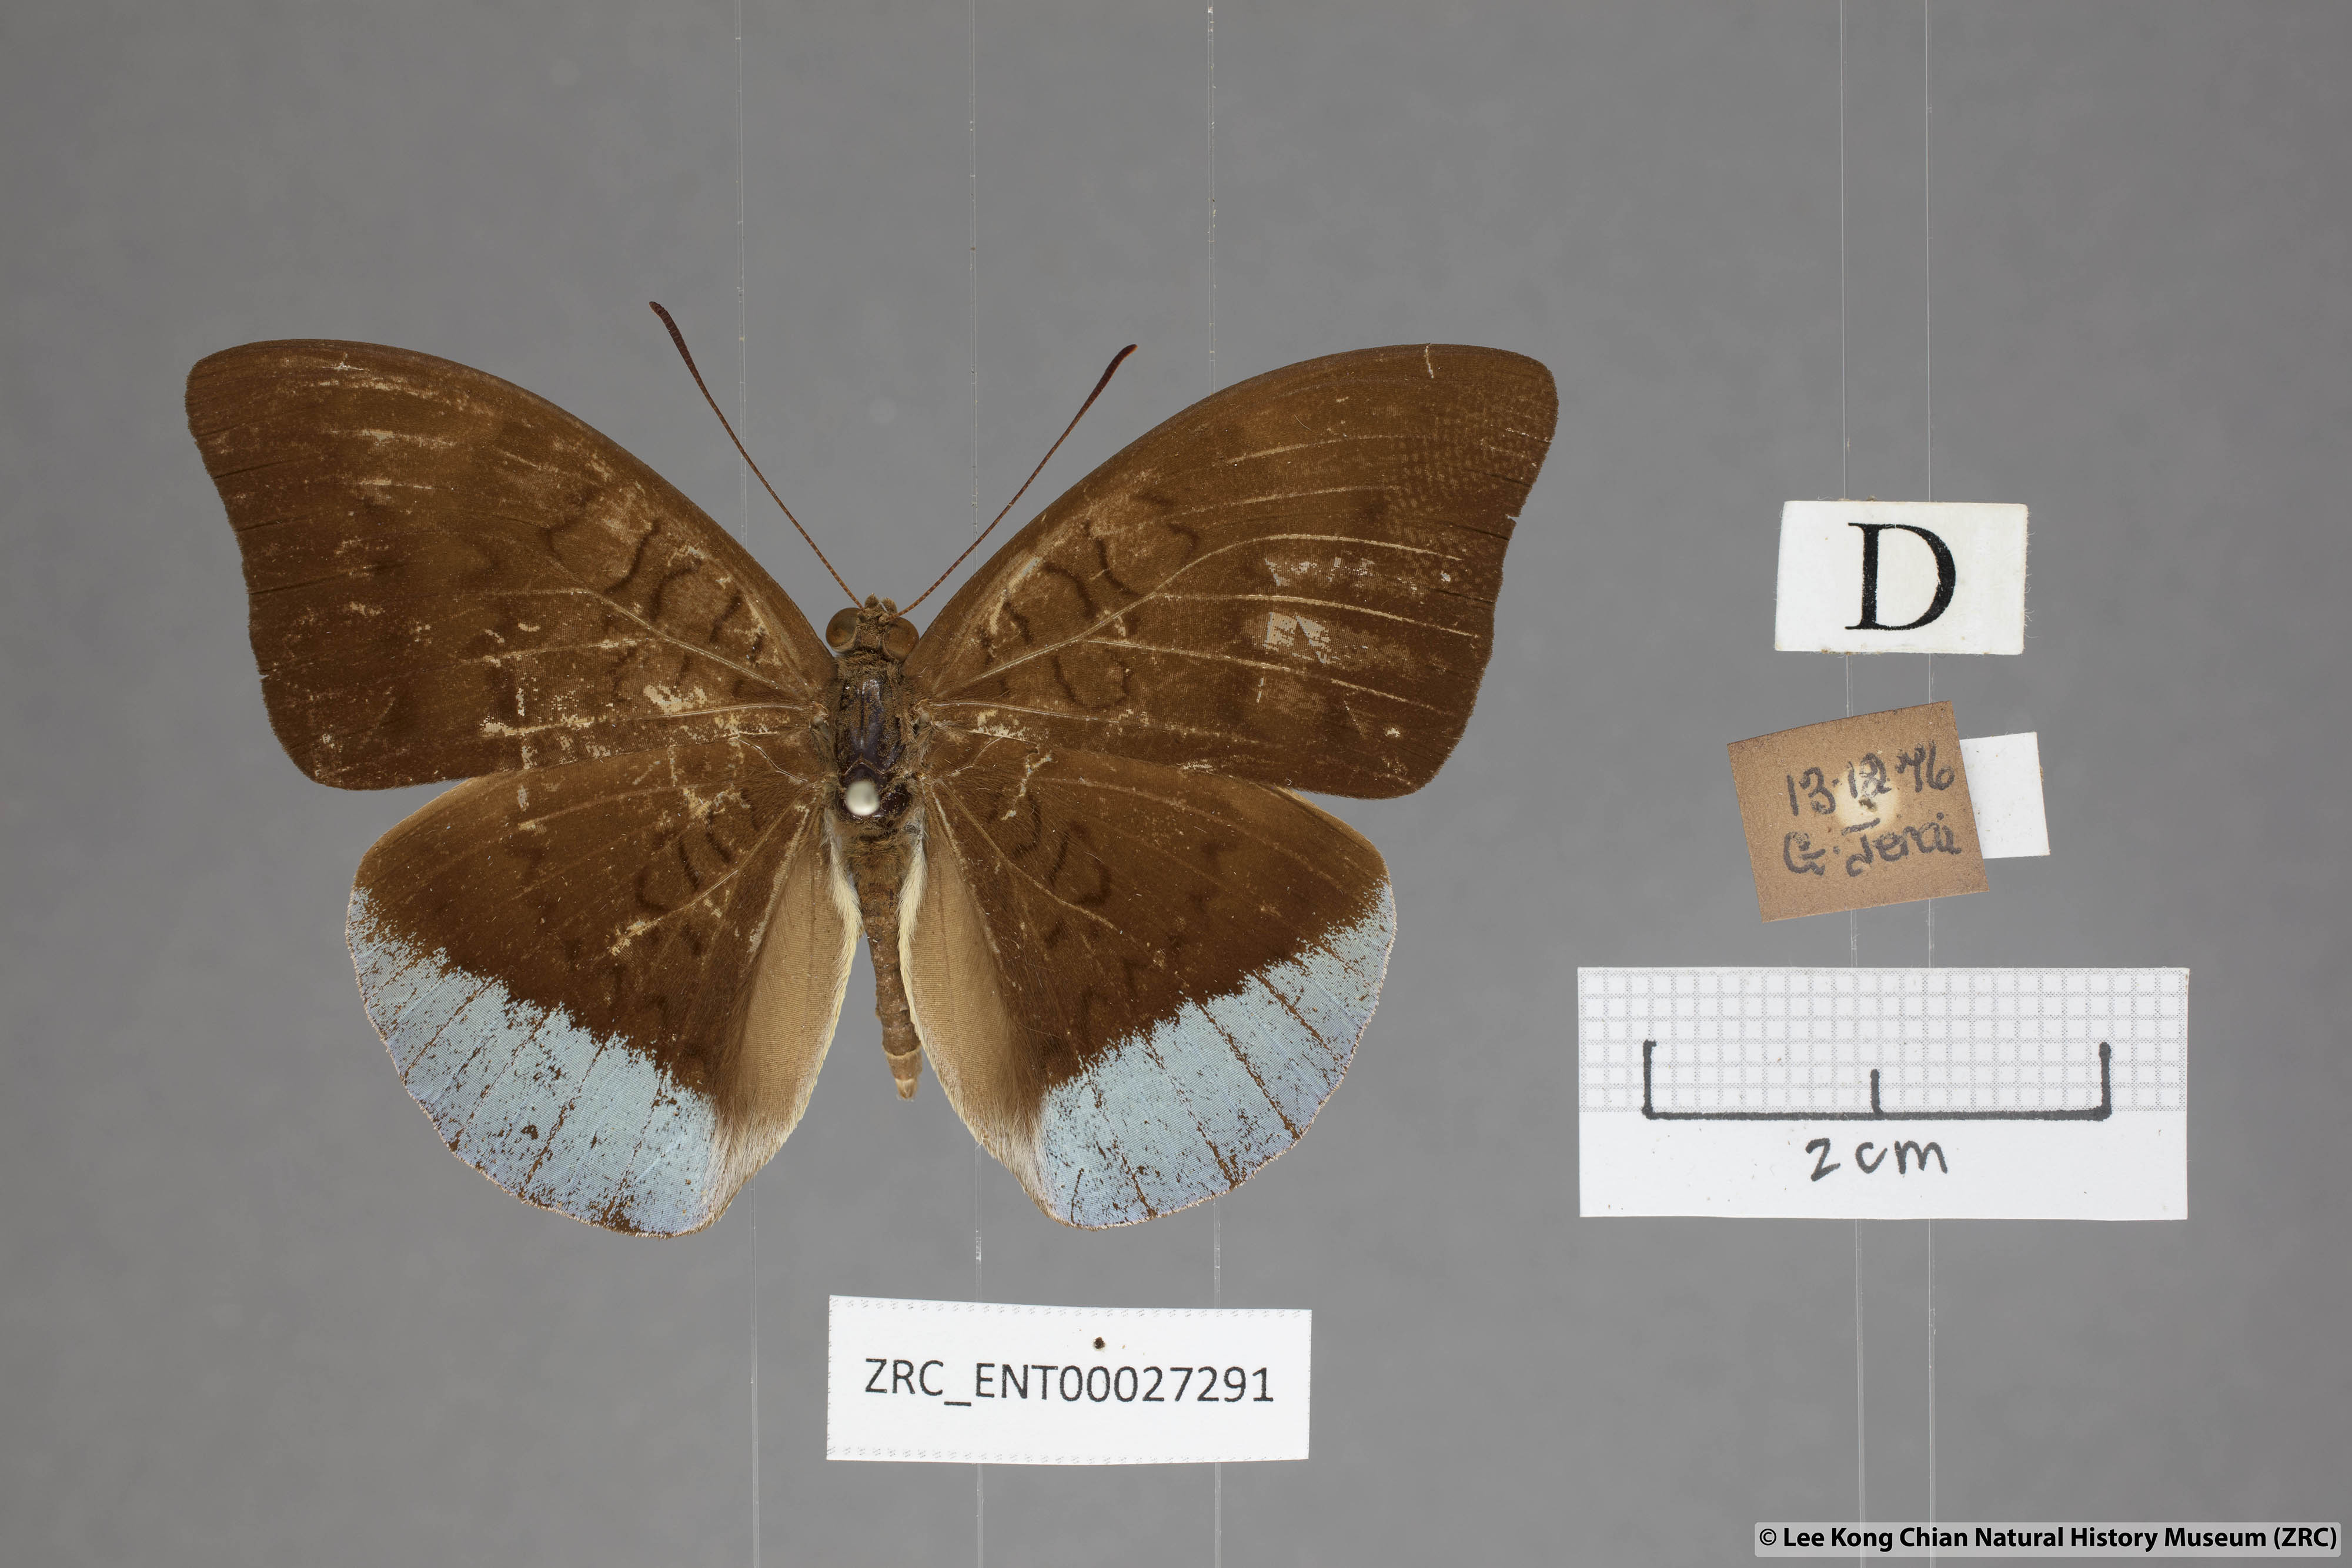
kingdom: Animalia
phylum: Arthropoda
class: Insecta
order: Lepidoptera
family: Nymphalidae
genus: Tanaecia
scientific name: Tanaecia julii
